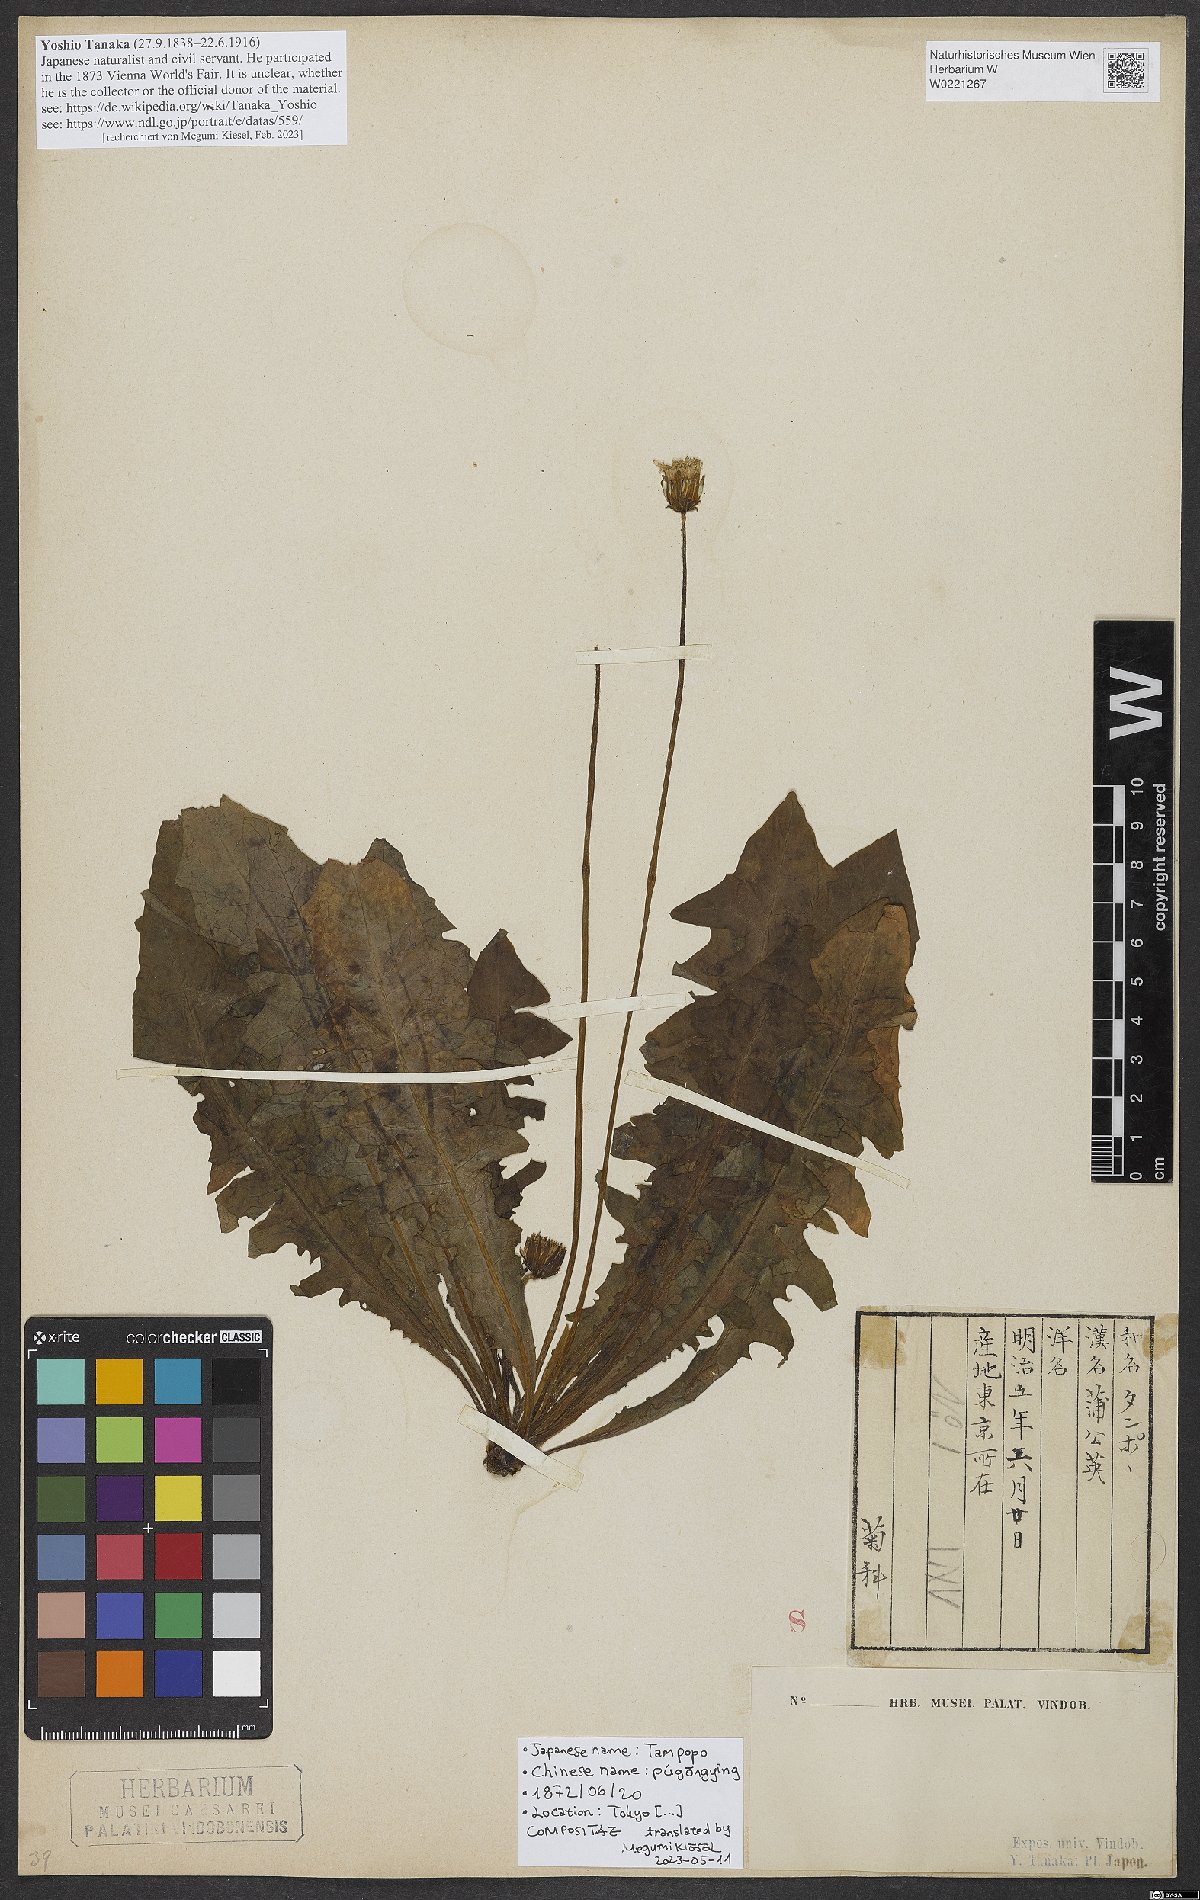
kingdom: Plantae
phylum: Tracheophyta
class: Magnoliopsida
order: Asterales
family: Asteraceae
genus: Taraxacum
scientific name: Taraxacum
